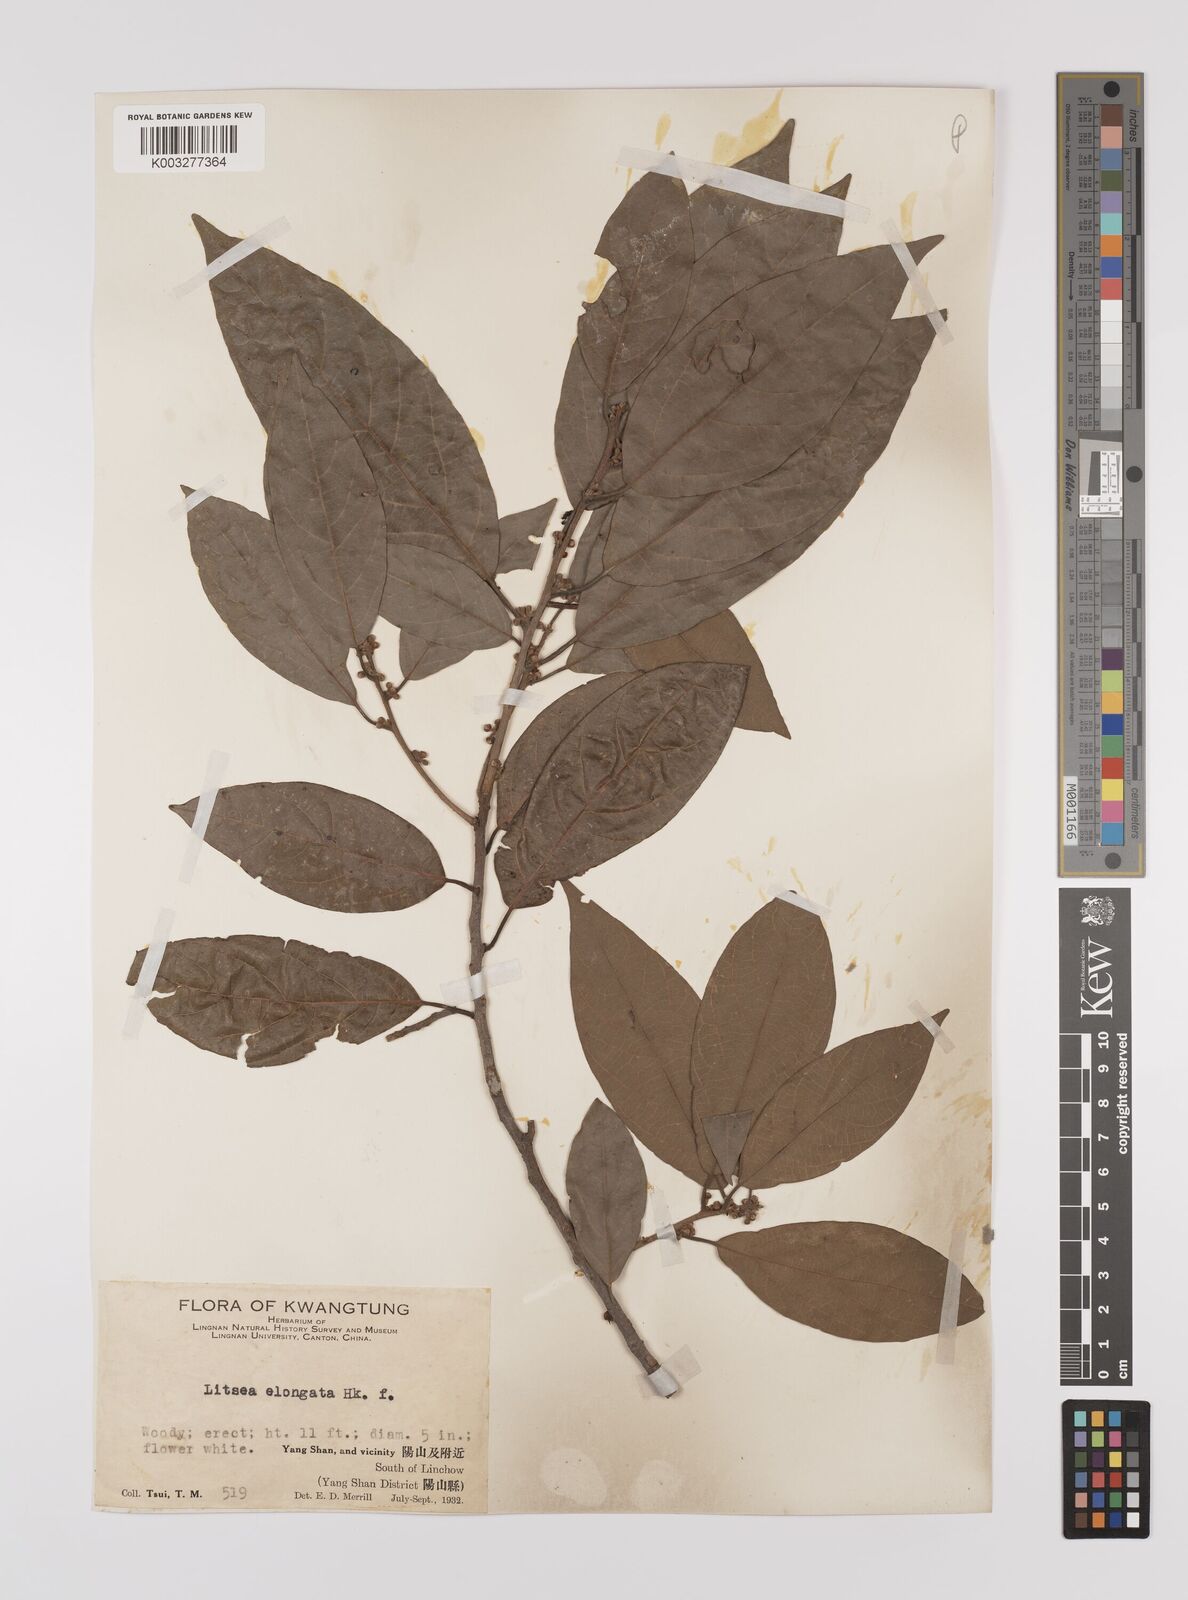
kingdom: Plantae
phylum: Tracheophyta
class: Magnoliopsida
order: Laurales
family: Lauraceae
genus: Litsea
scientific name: Litsea elongata
